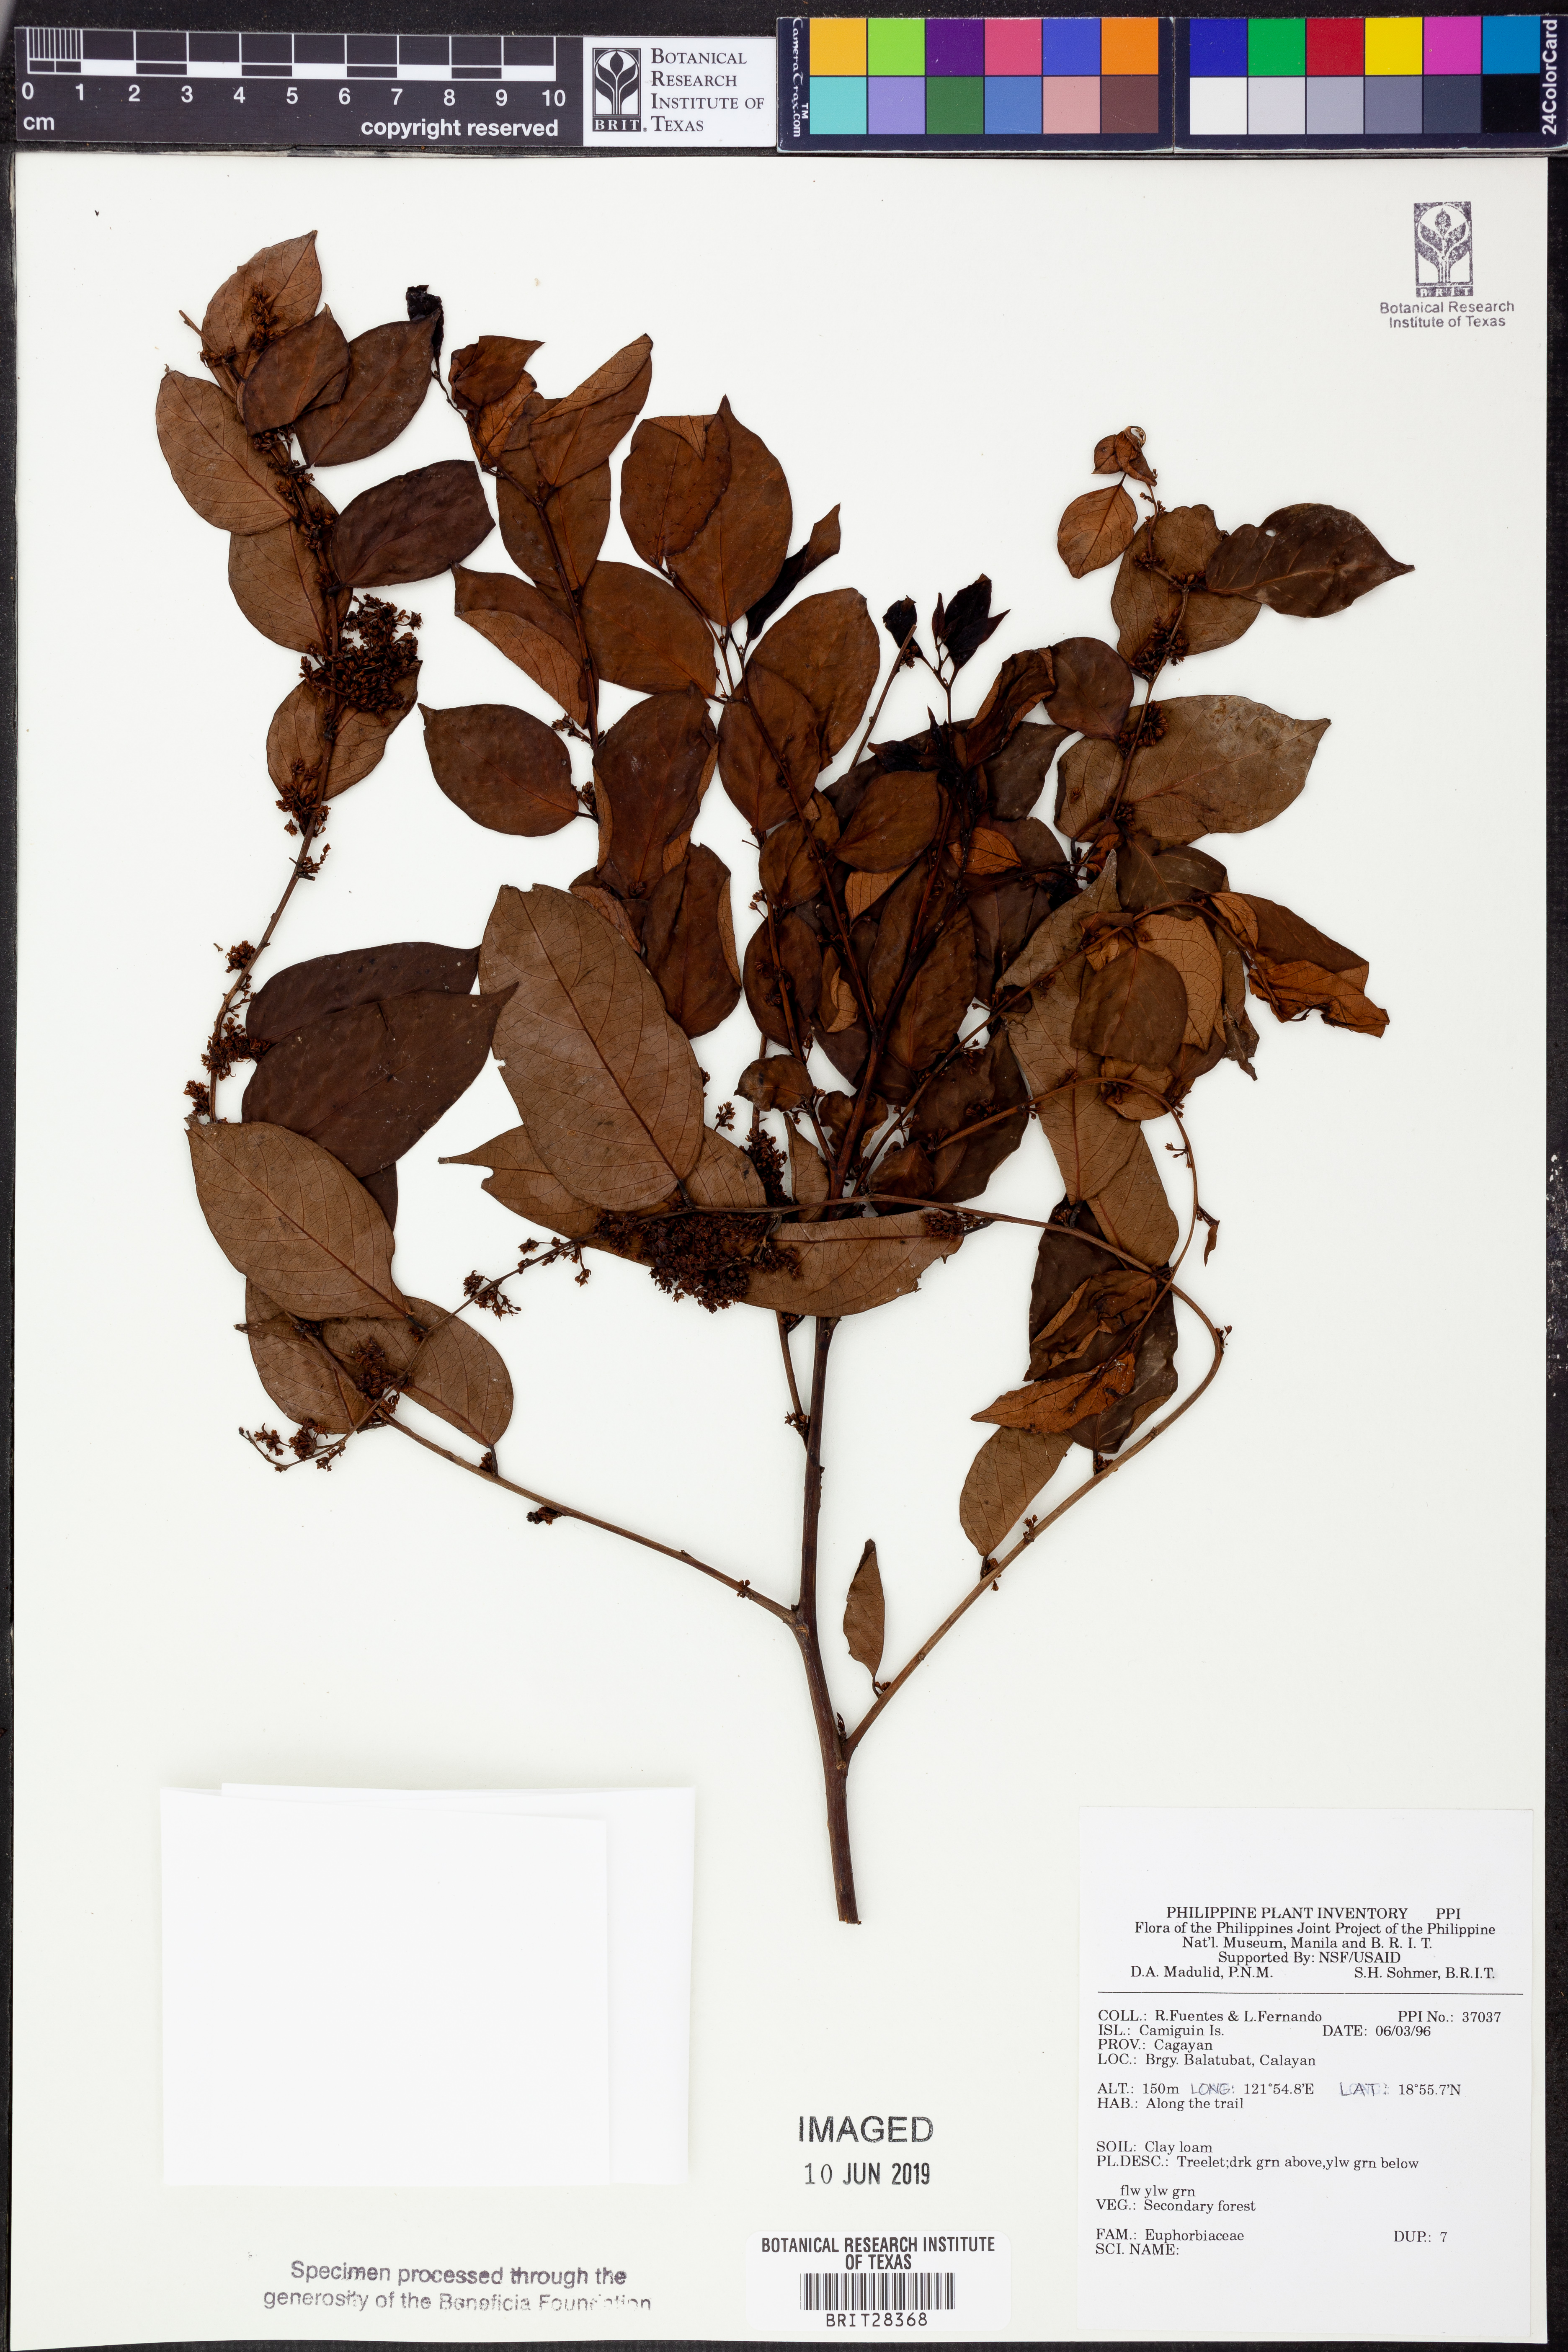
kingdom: Plantae
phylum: Tracheophyta
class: Magnoliopsida
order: Malpighiales
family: Euphorbiaceae
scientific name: Euphorbiaceae
